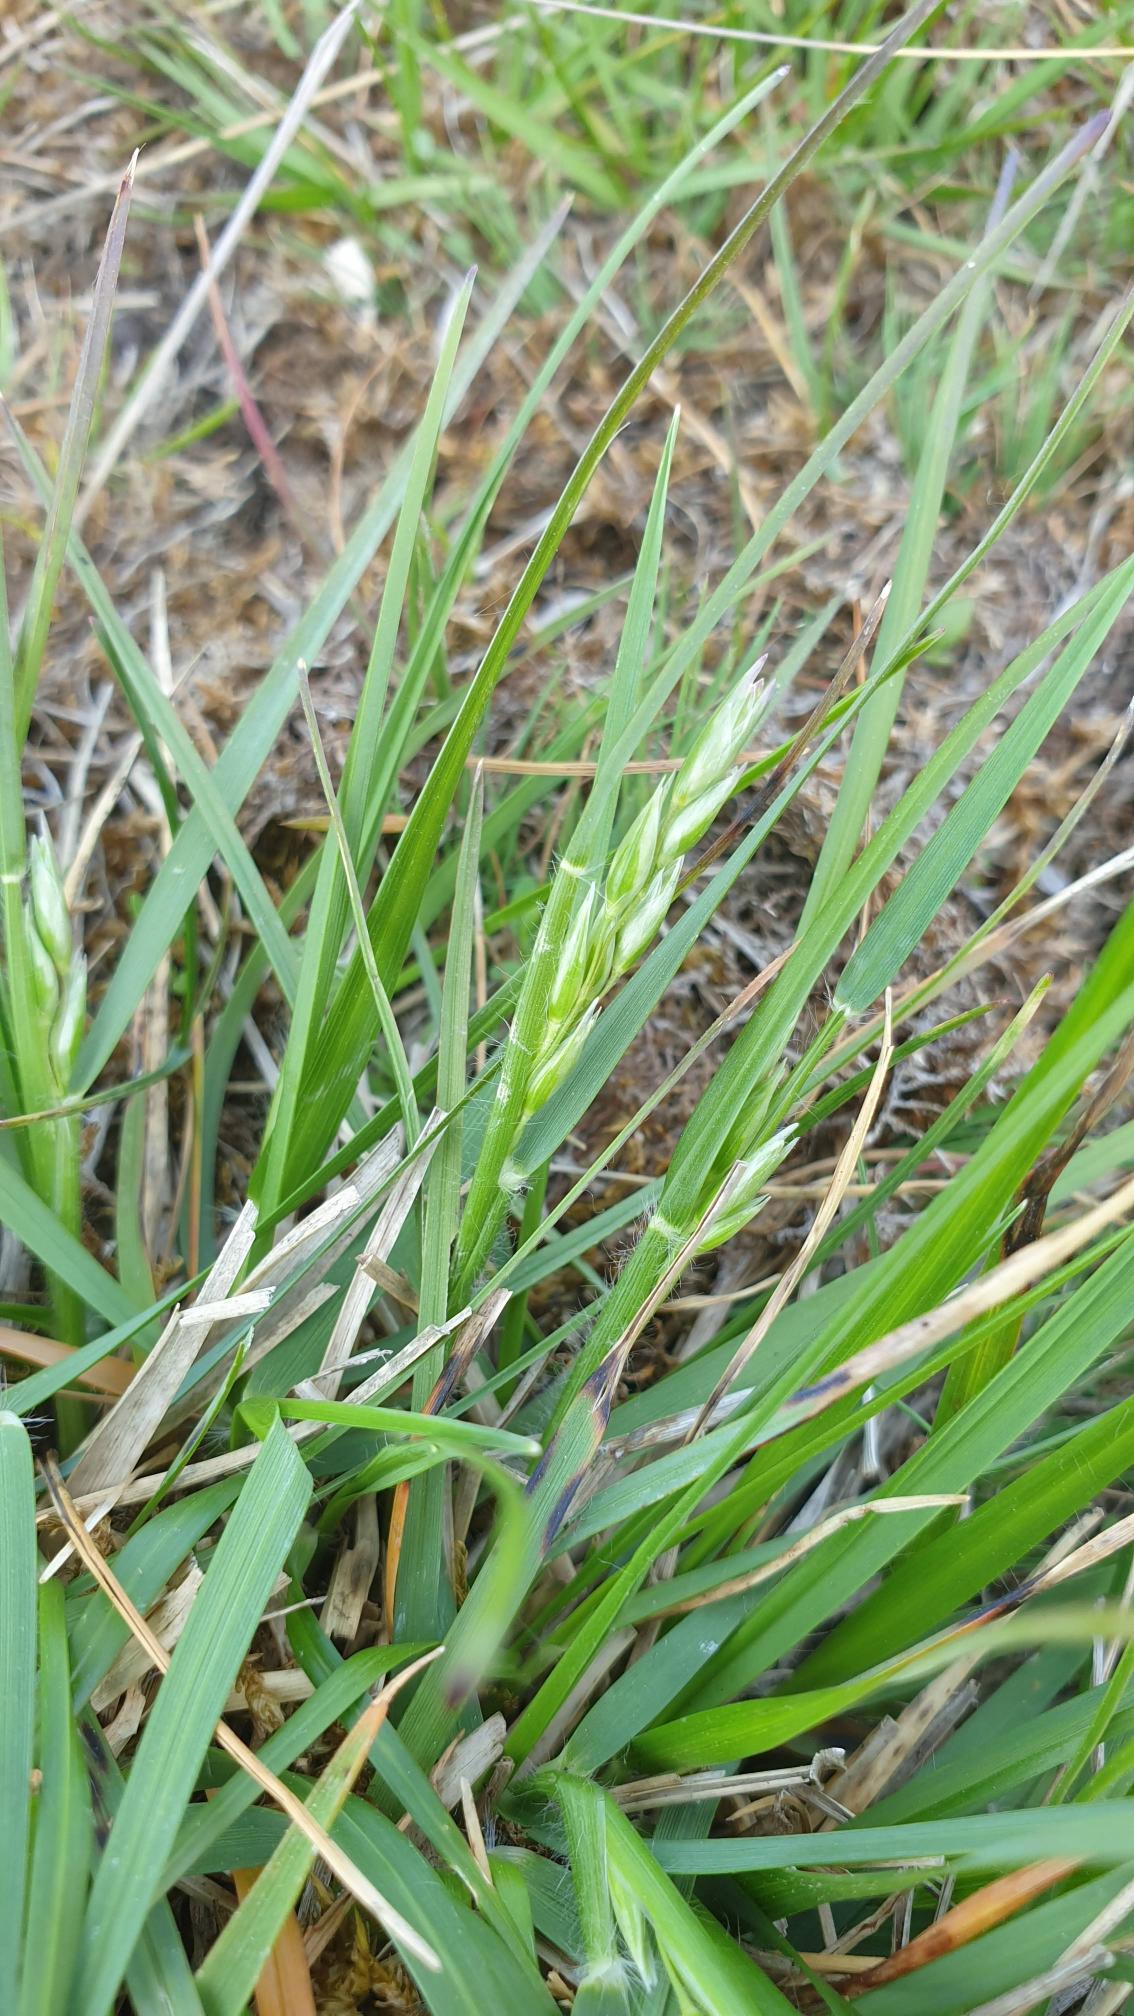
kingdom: Plantae
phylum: Tracheophyta
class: Liliopsida
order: Poales
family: Poaceae
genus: Danthonia
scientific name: Danthonia decumbens
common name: Tandbælg
